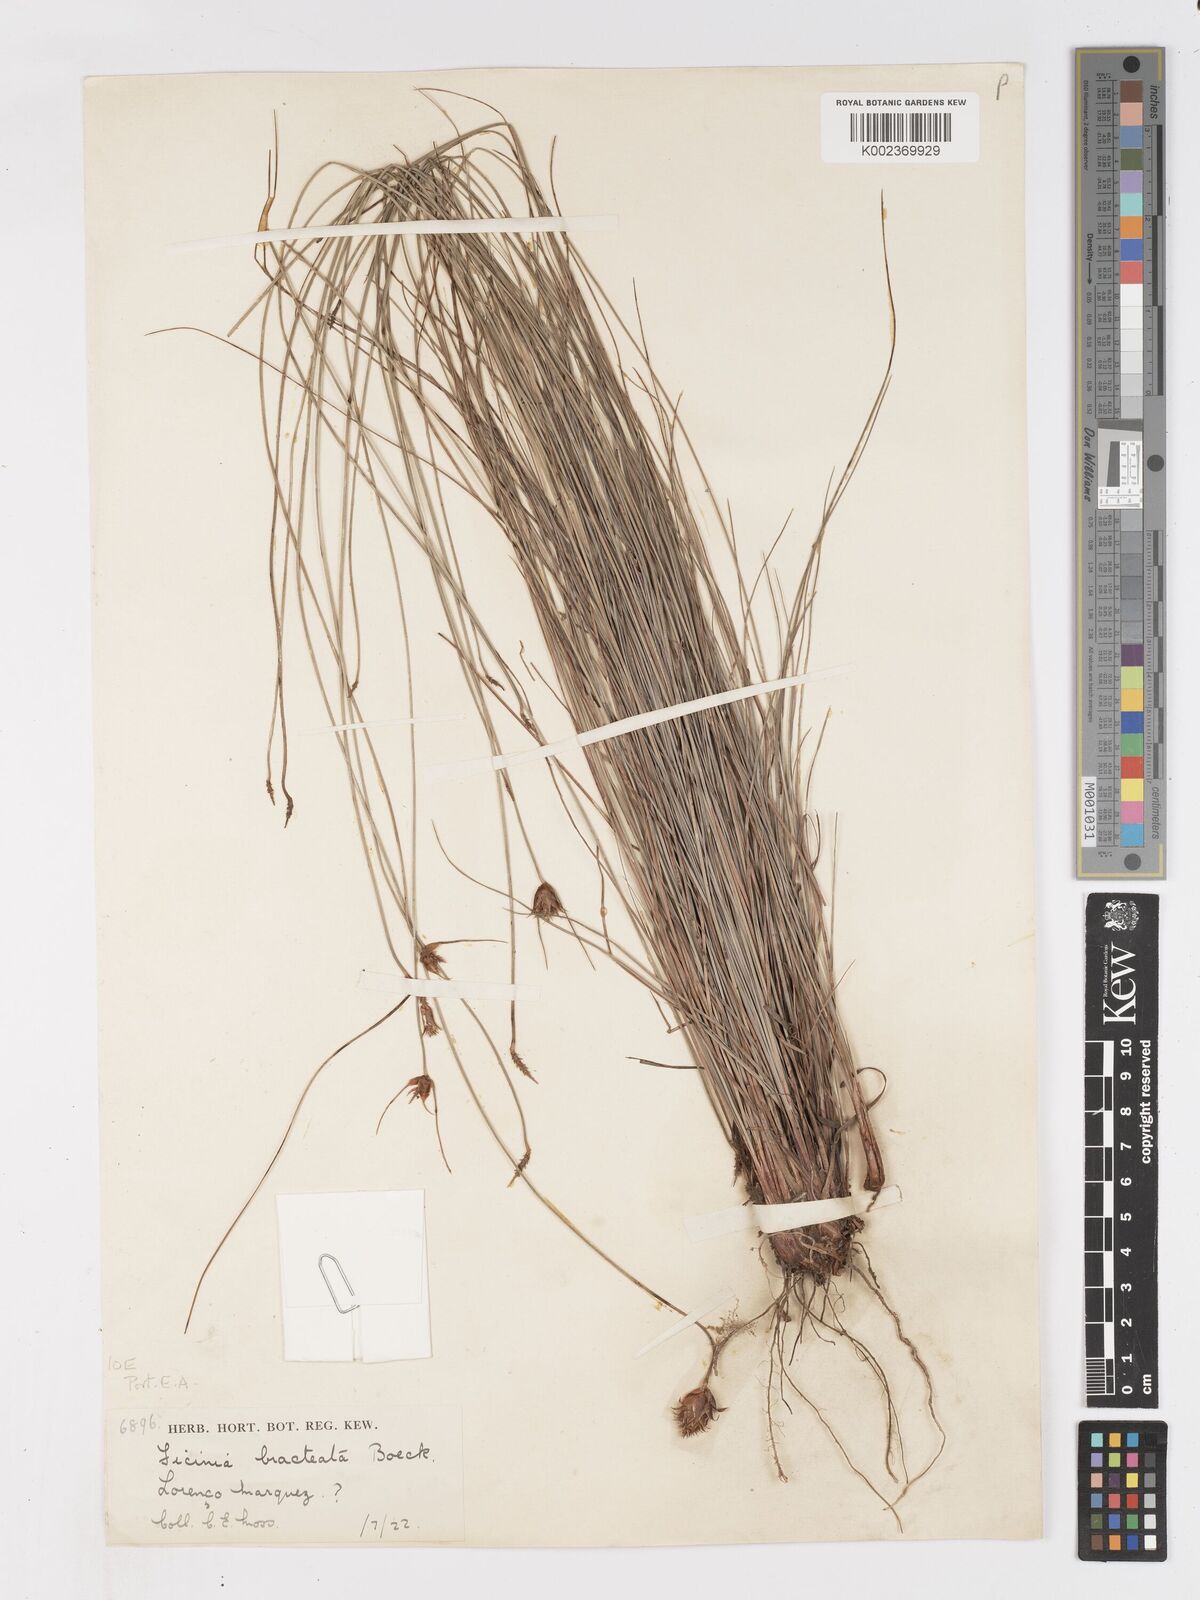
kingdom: Plantae
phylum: Tracheophyta
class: Liliopsida
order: Poales
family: Cyperaceae
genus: Ficinia
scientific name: Ficinia nigrescens
